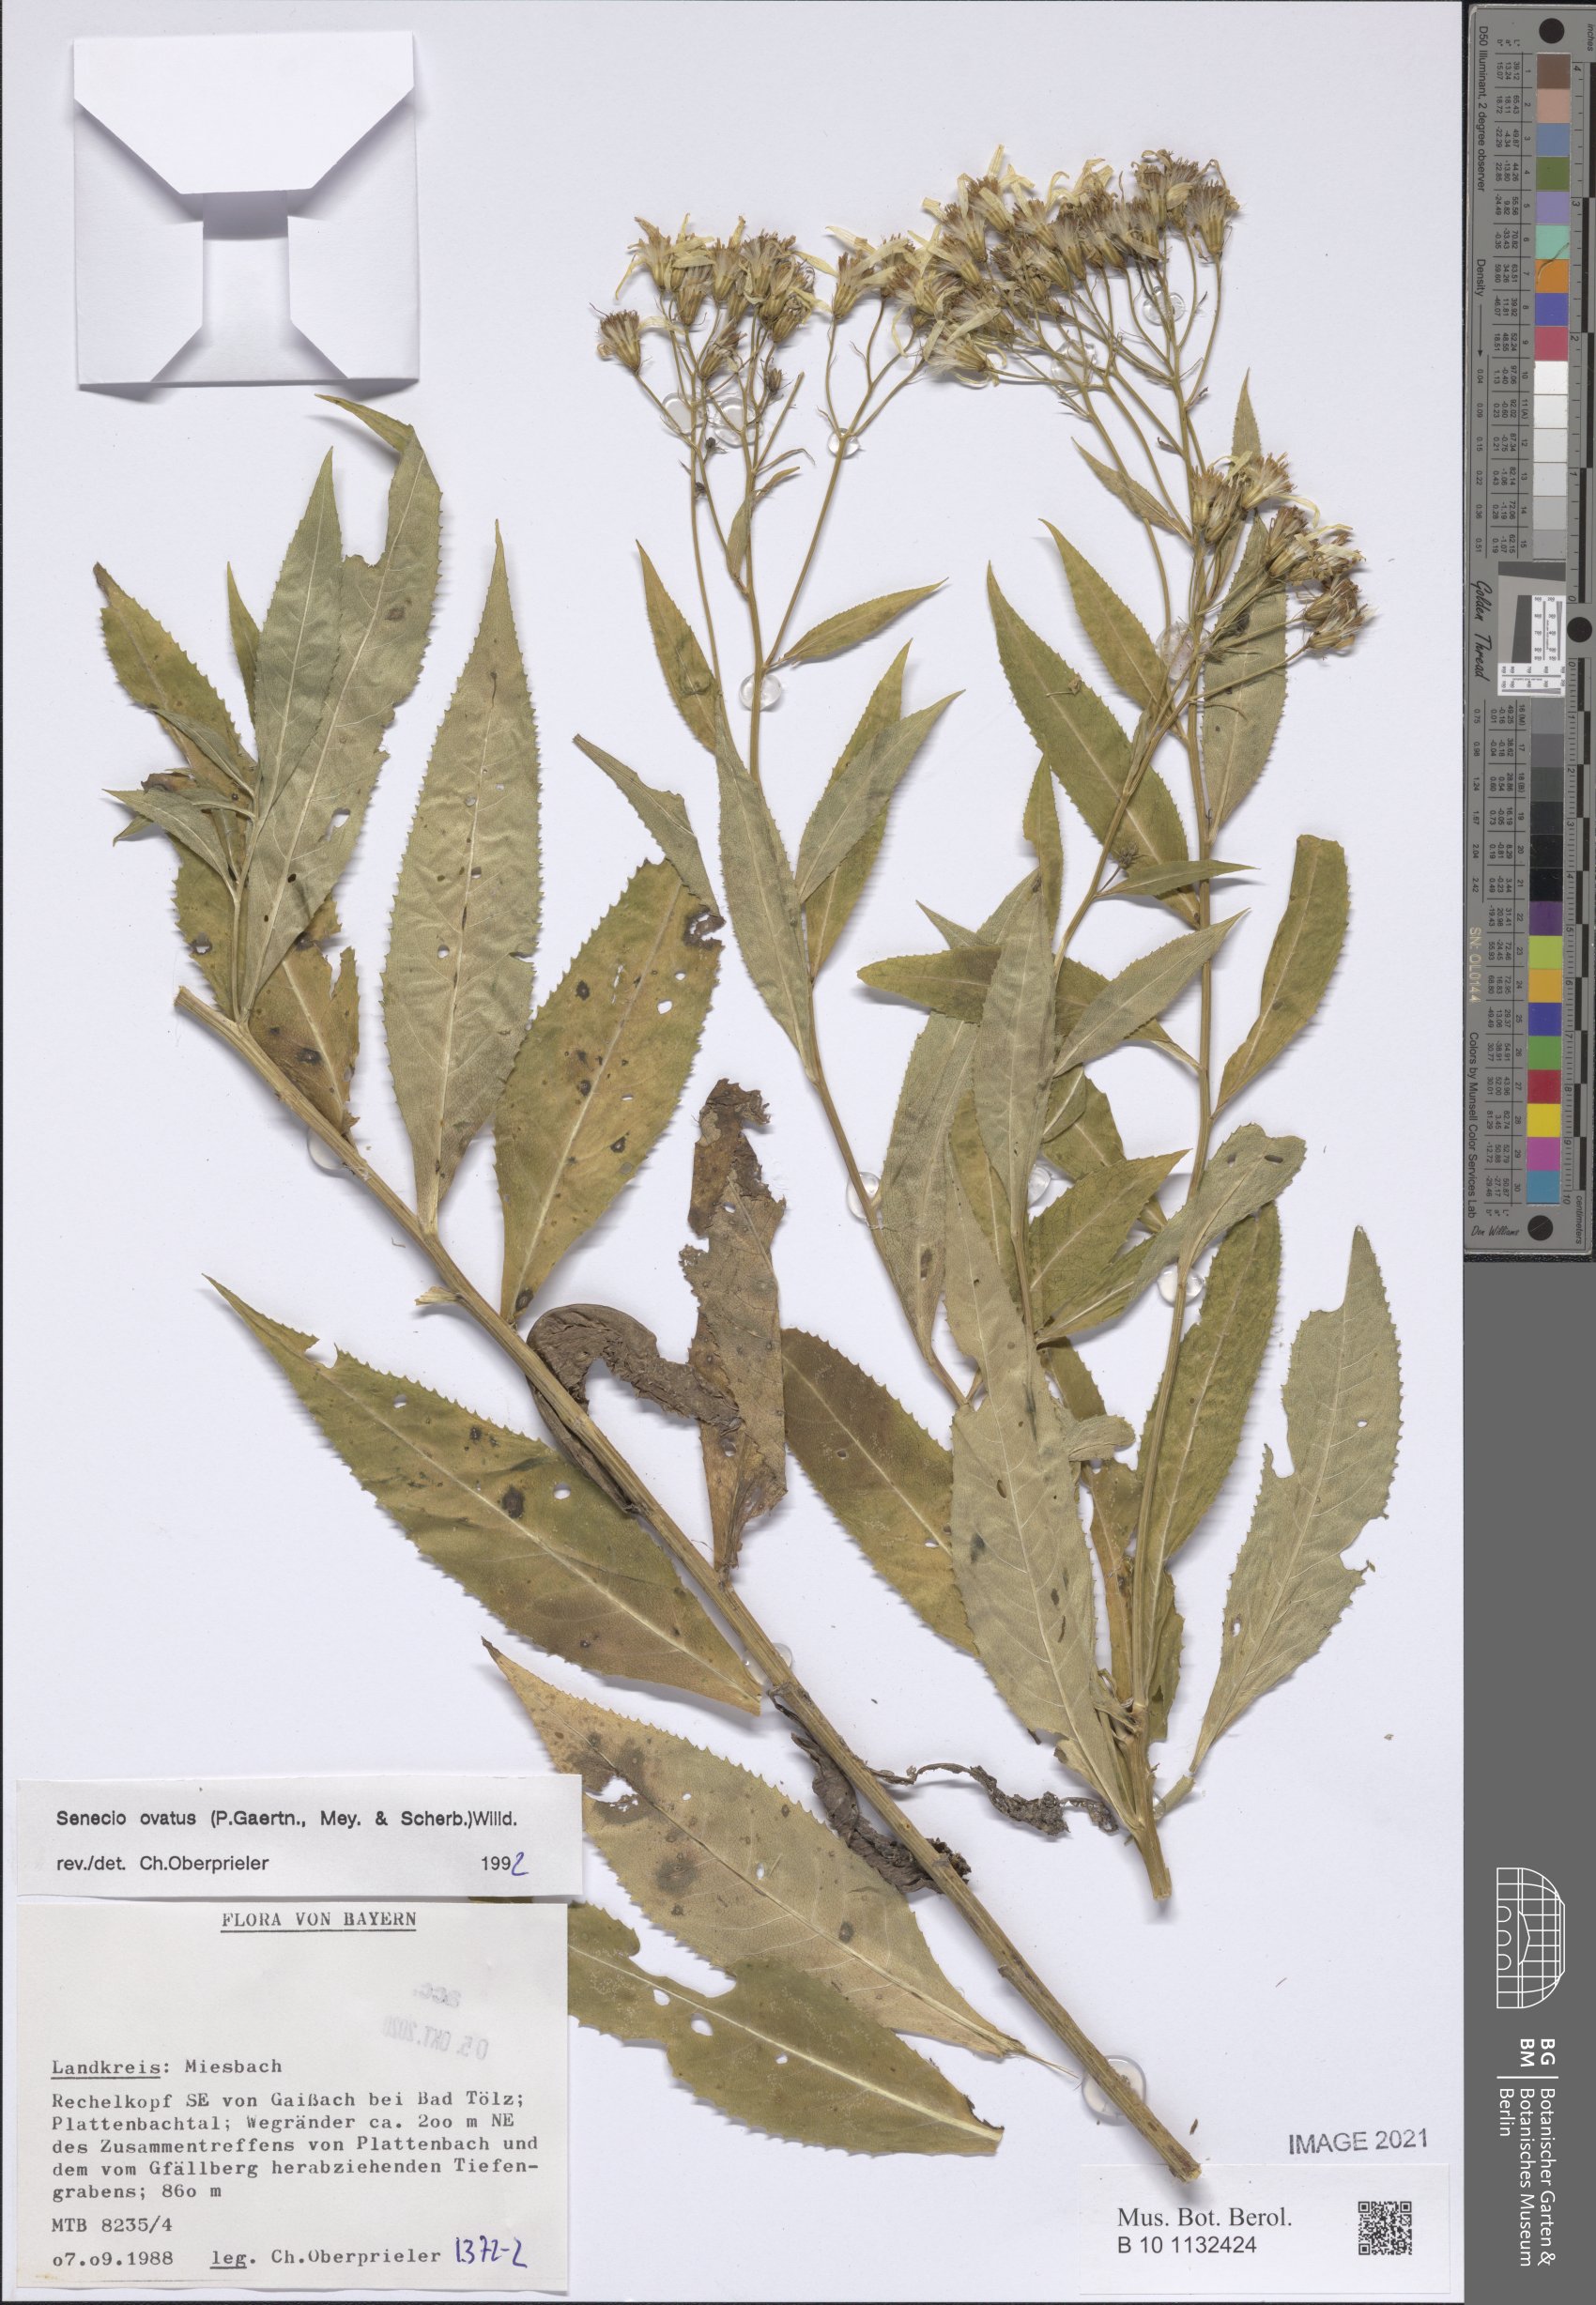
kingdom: Plantae
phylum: Tracheophyta
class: Magnoliopsida
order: Asterales
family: Asteraceae
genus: Senecio
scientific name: Senecio ovatus
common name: Wood ragwort
